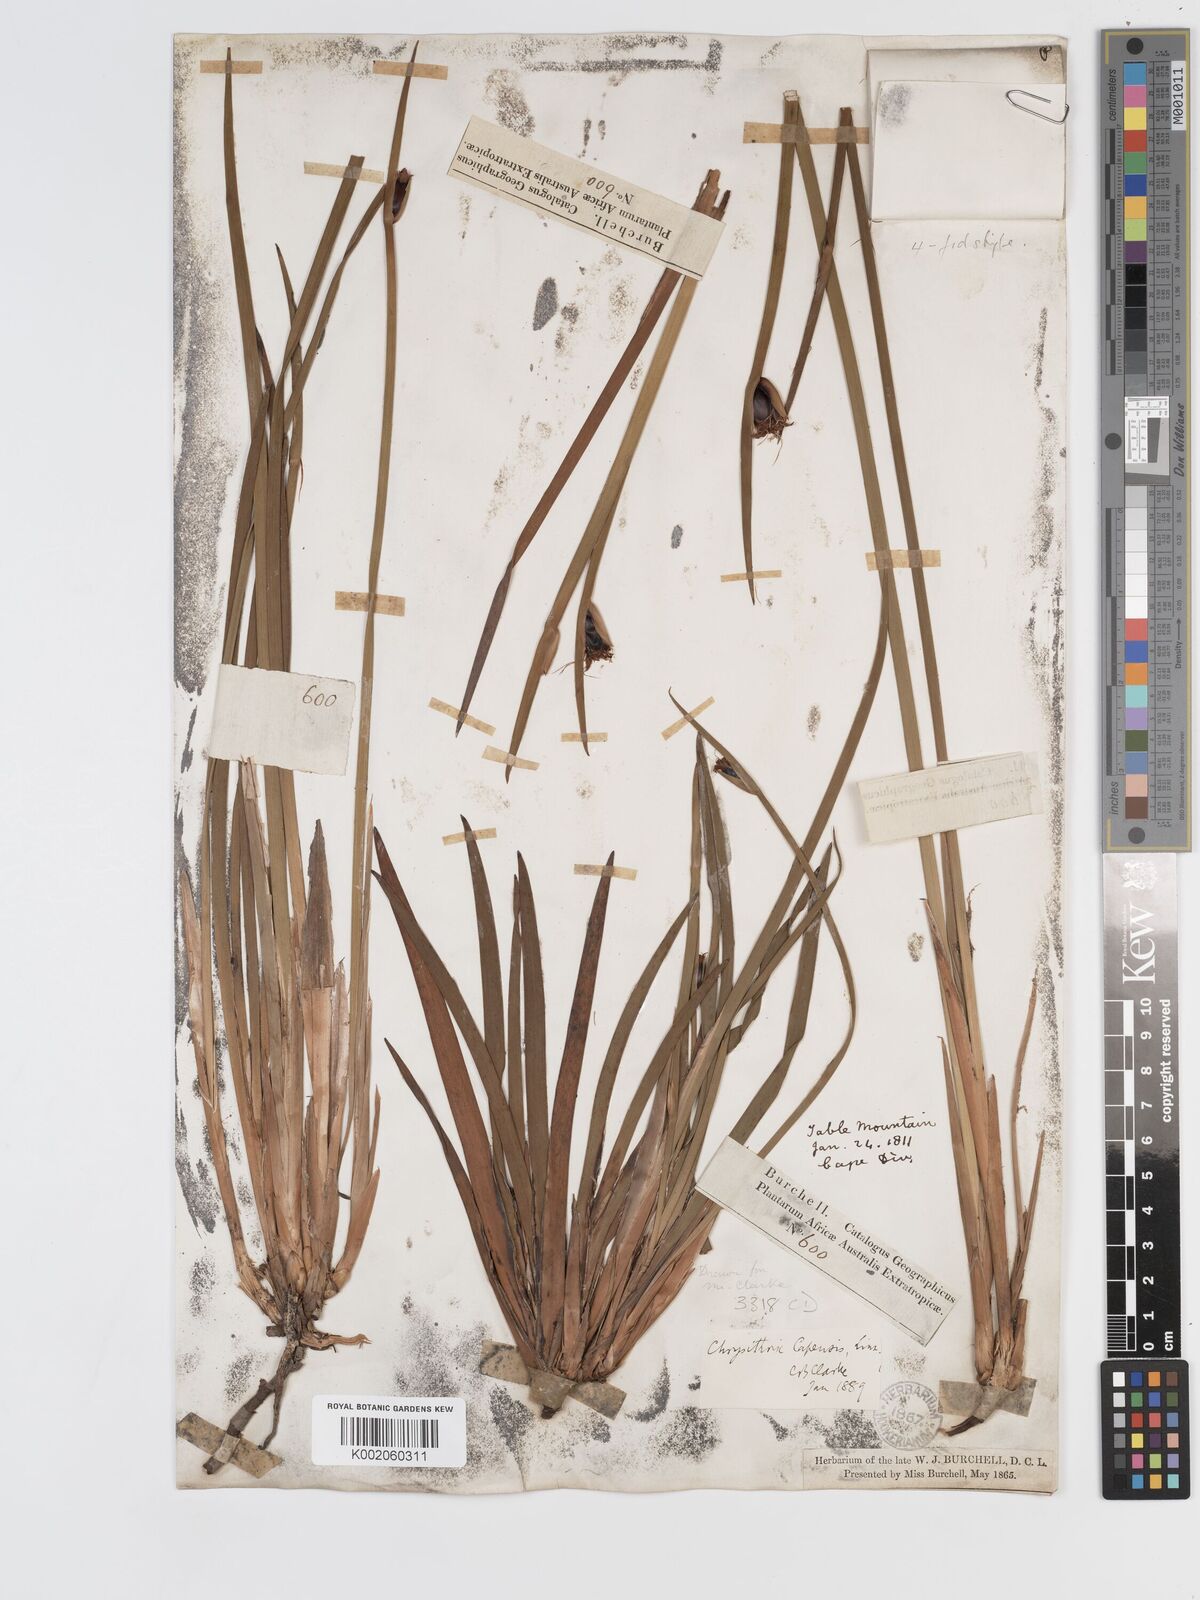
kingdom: Plantae
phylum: Tracheophyta
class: Liliopsida
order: Poales
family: Cyperaceae
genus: Chrysitrix
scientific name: Chrysitrix capensis
